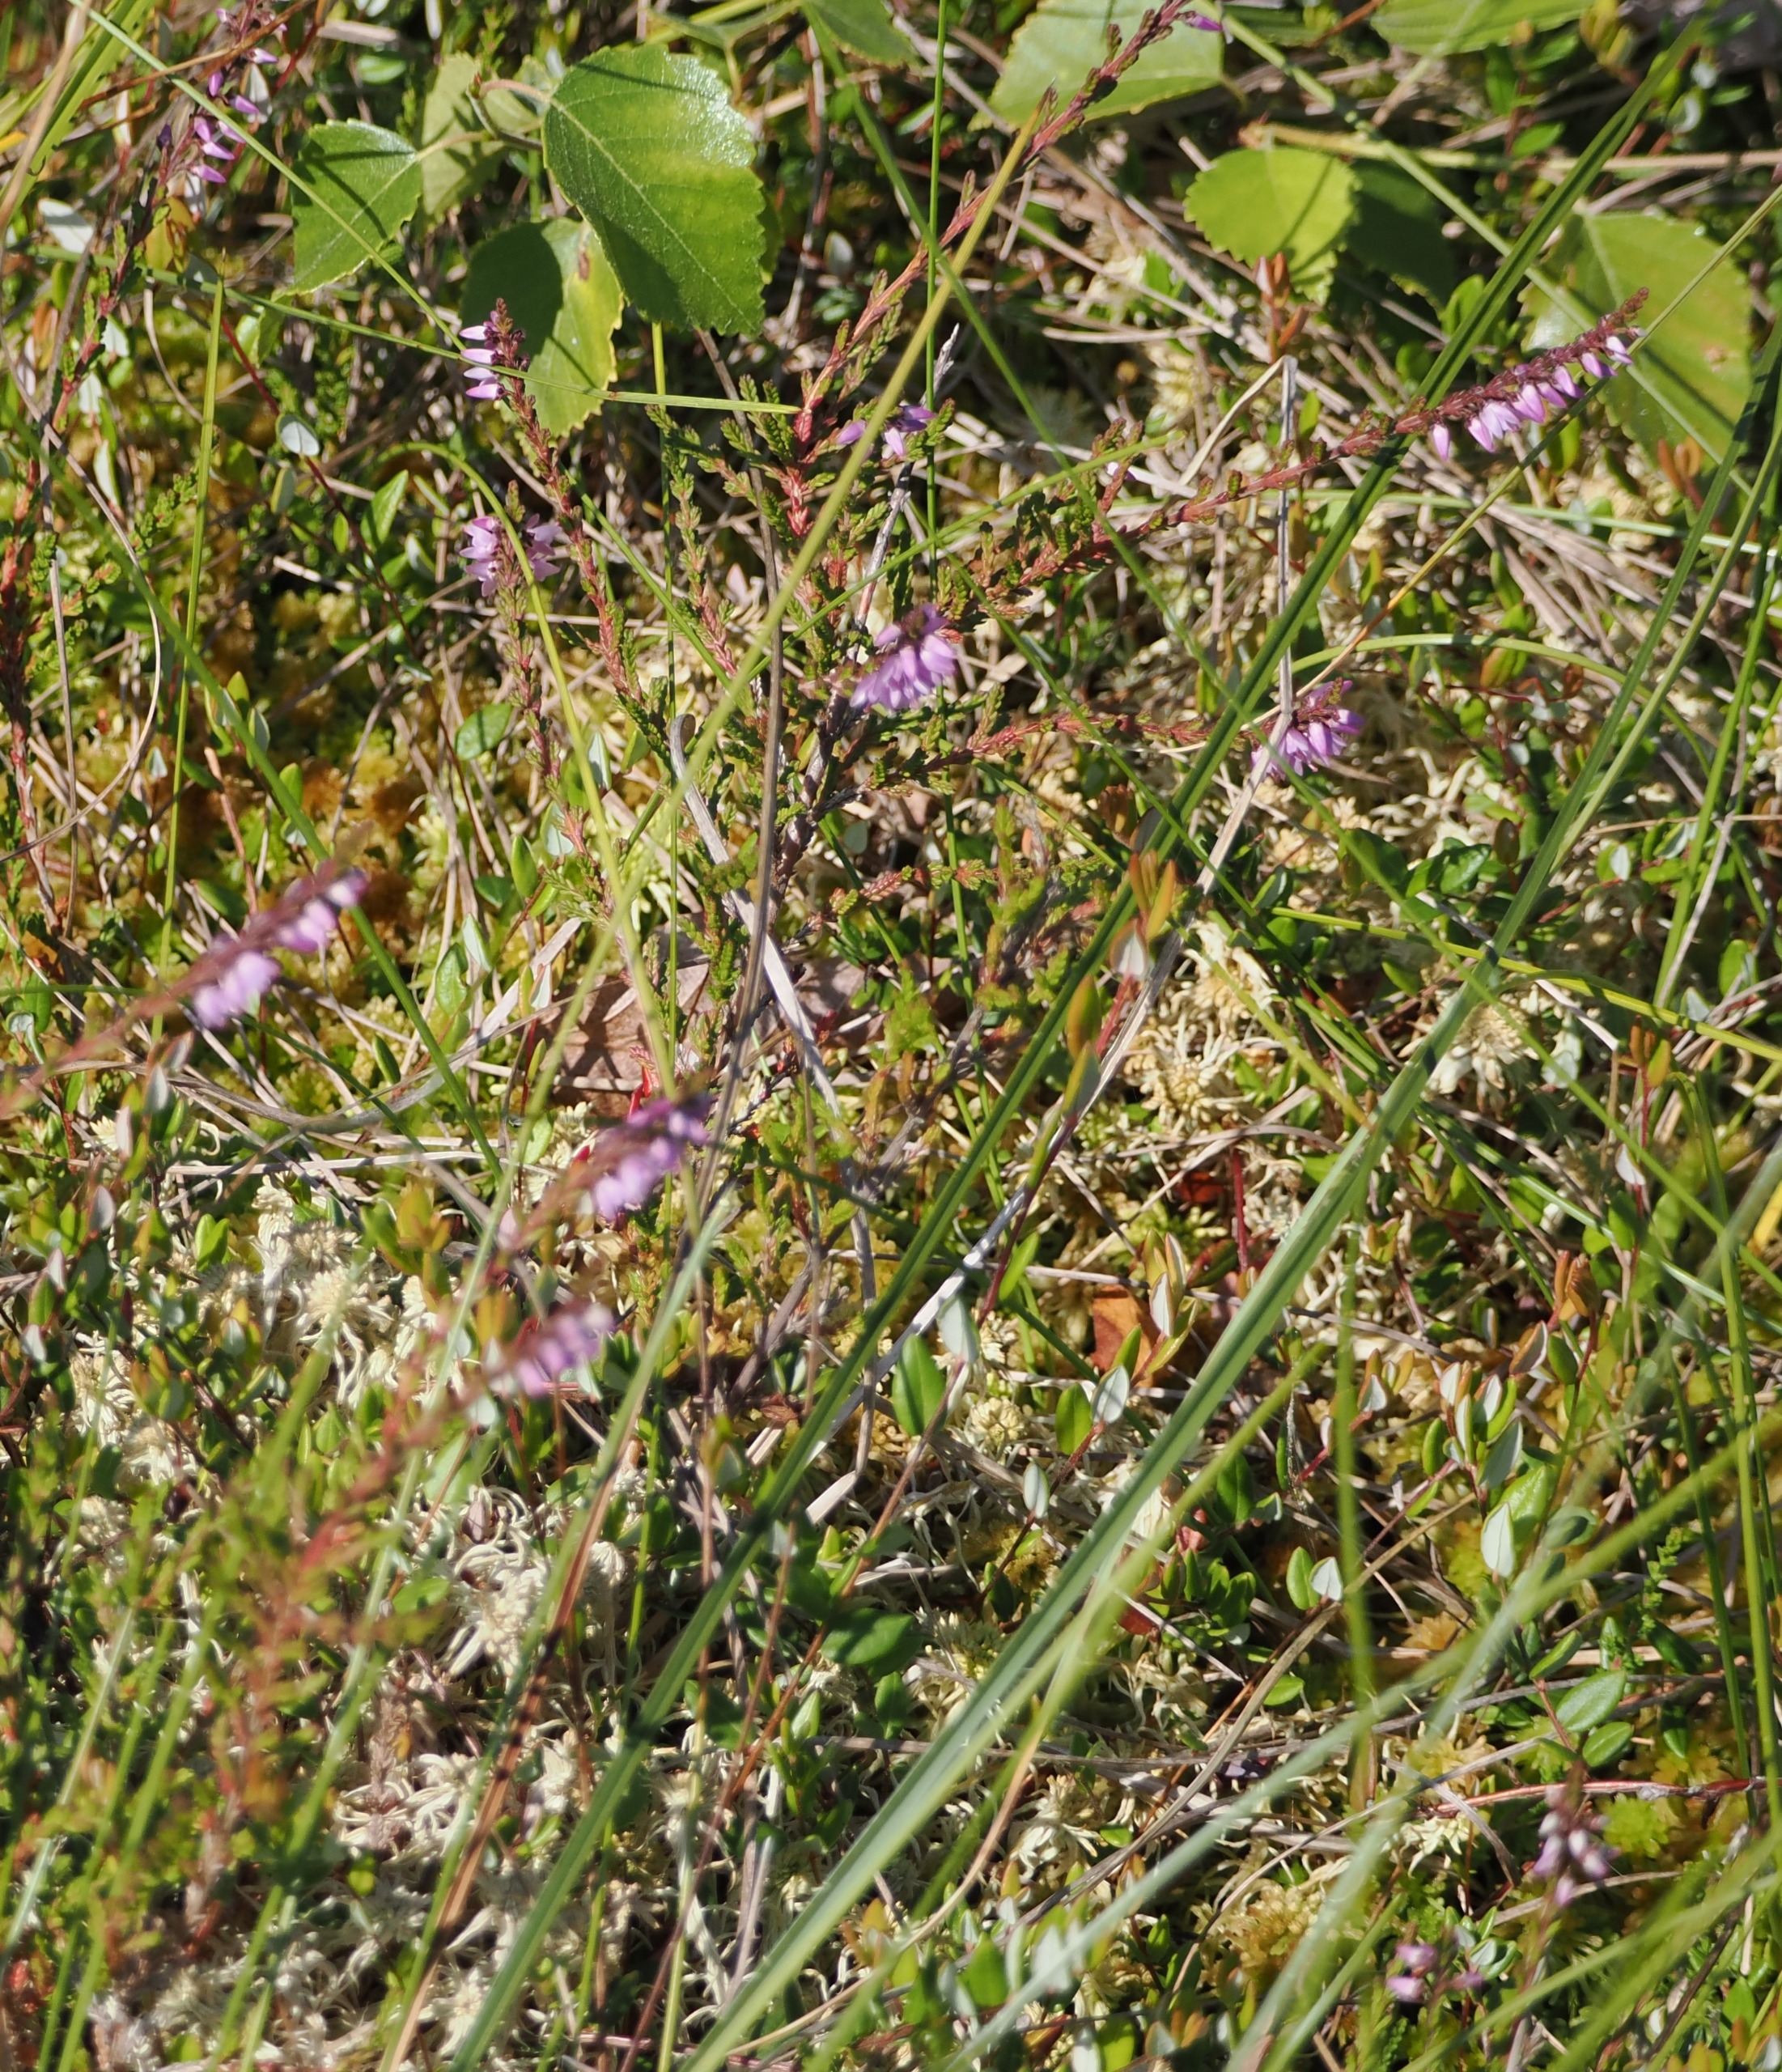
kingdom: Plantae
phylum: Tracheophyta
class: Magnoliopsida
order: Ericales
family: Ericaceae
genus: Calluna
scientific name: Calluna vulgaris
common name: Hedelyng
